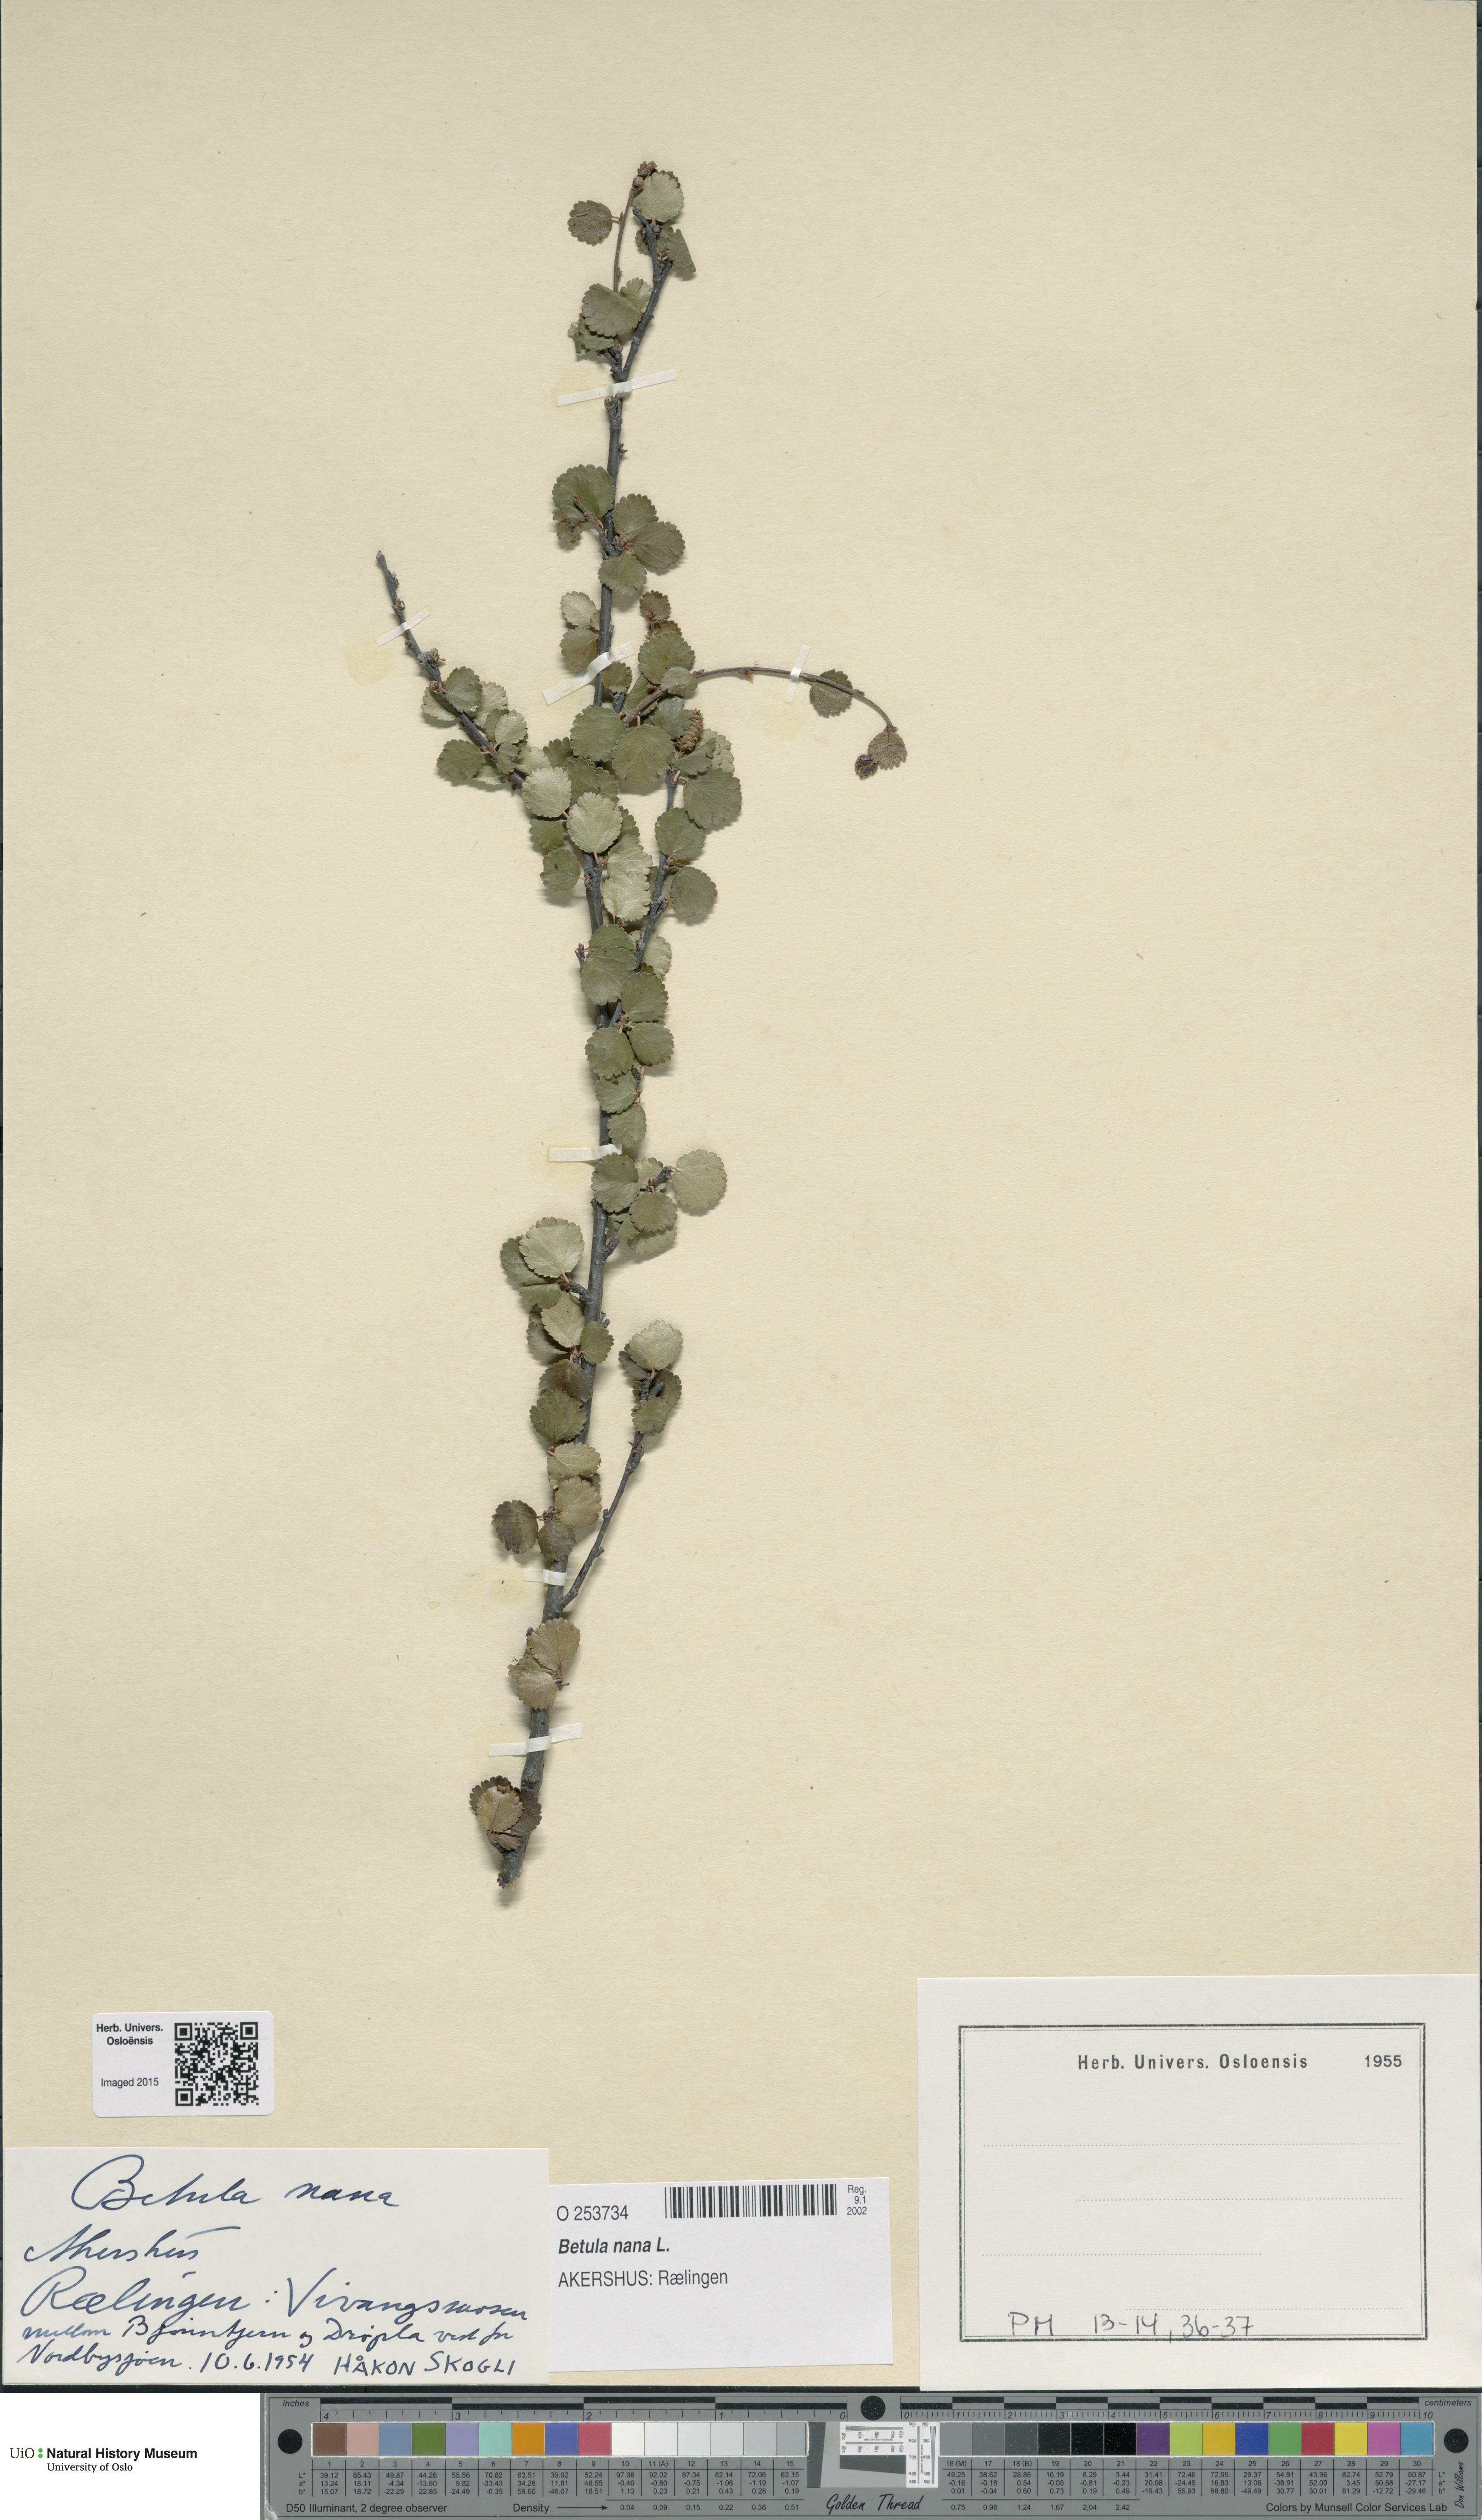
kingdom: Plantae
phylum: Tracheophyta
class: Magnoliopsida
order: Fagales
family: Betulaceae
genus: Betula
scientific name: Betula nana
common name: Arctic dwarf birch
